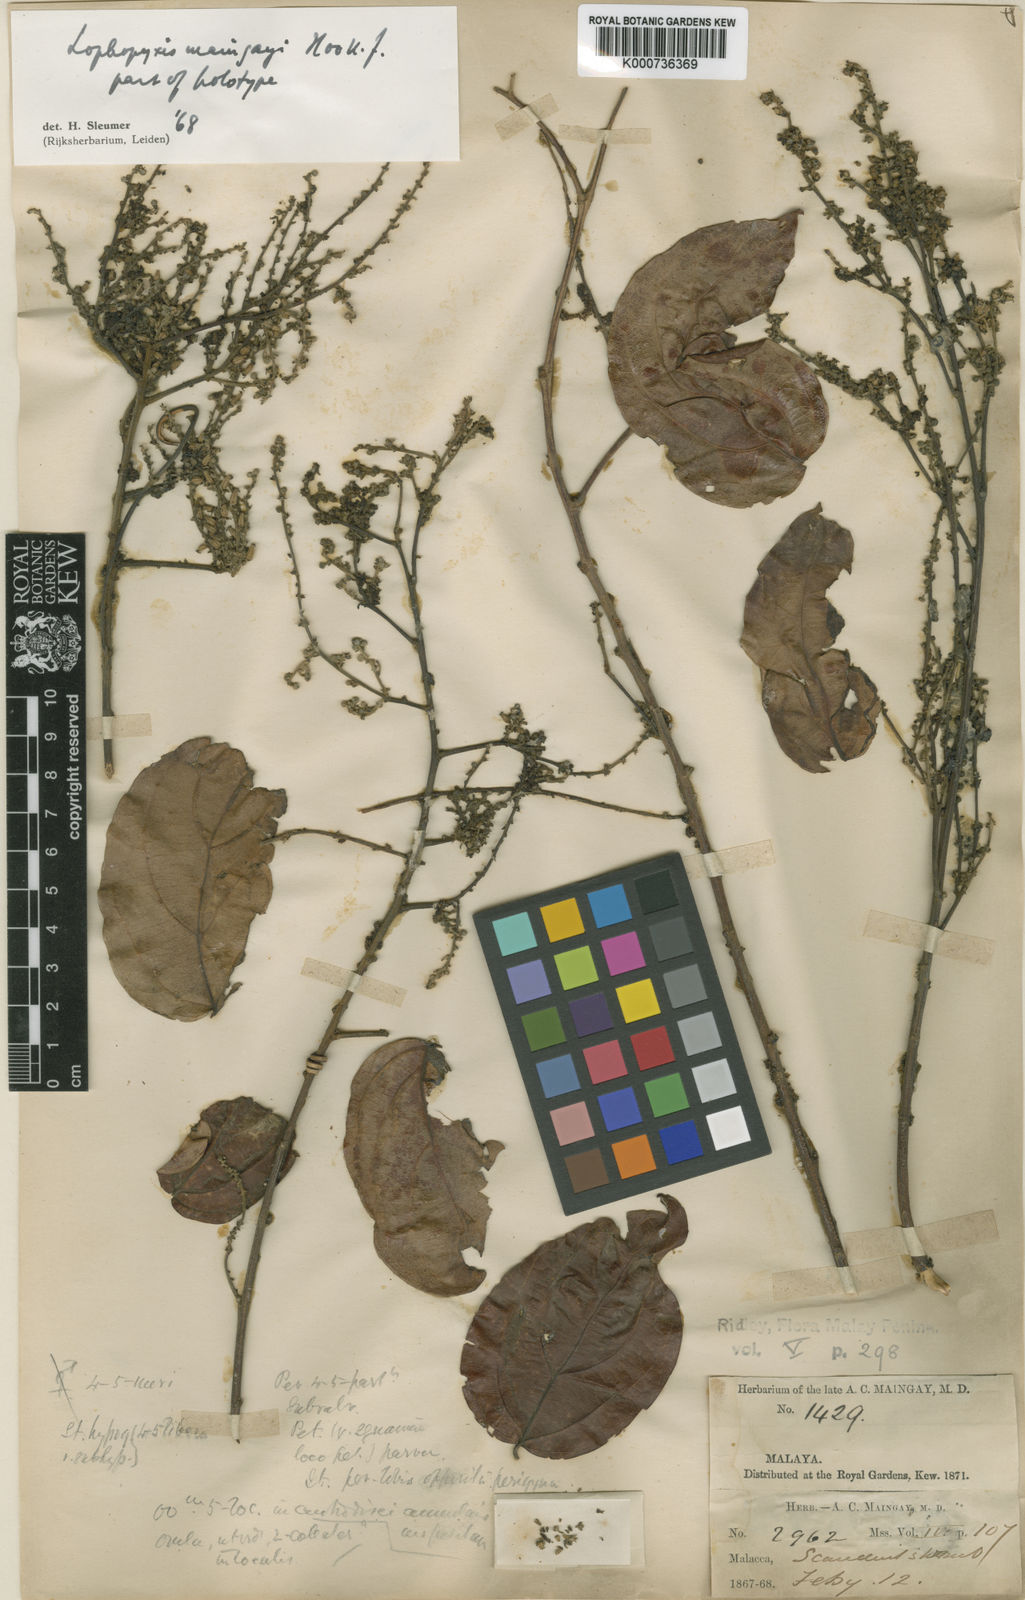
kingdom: Plantae
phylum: Tracheophyta
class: Magnoliopsida
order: Malpighiales
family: Lophopyxidaceae
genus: Lophopyxis
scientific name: Lophopyxis maingayi
